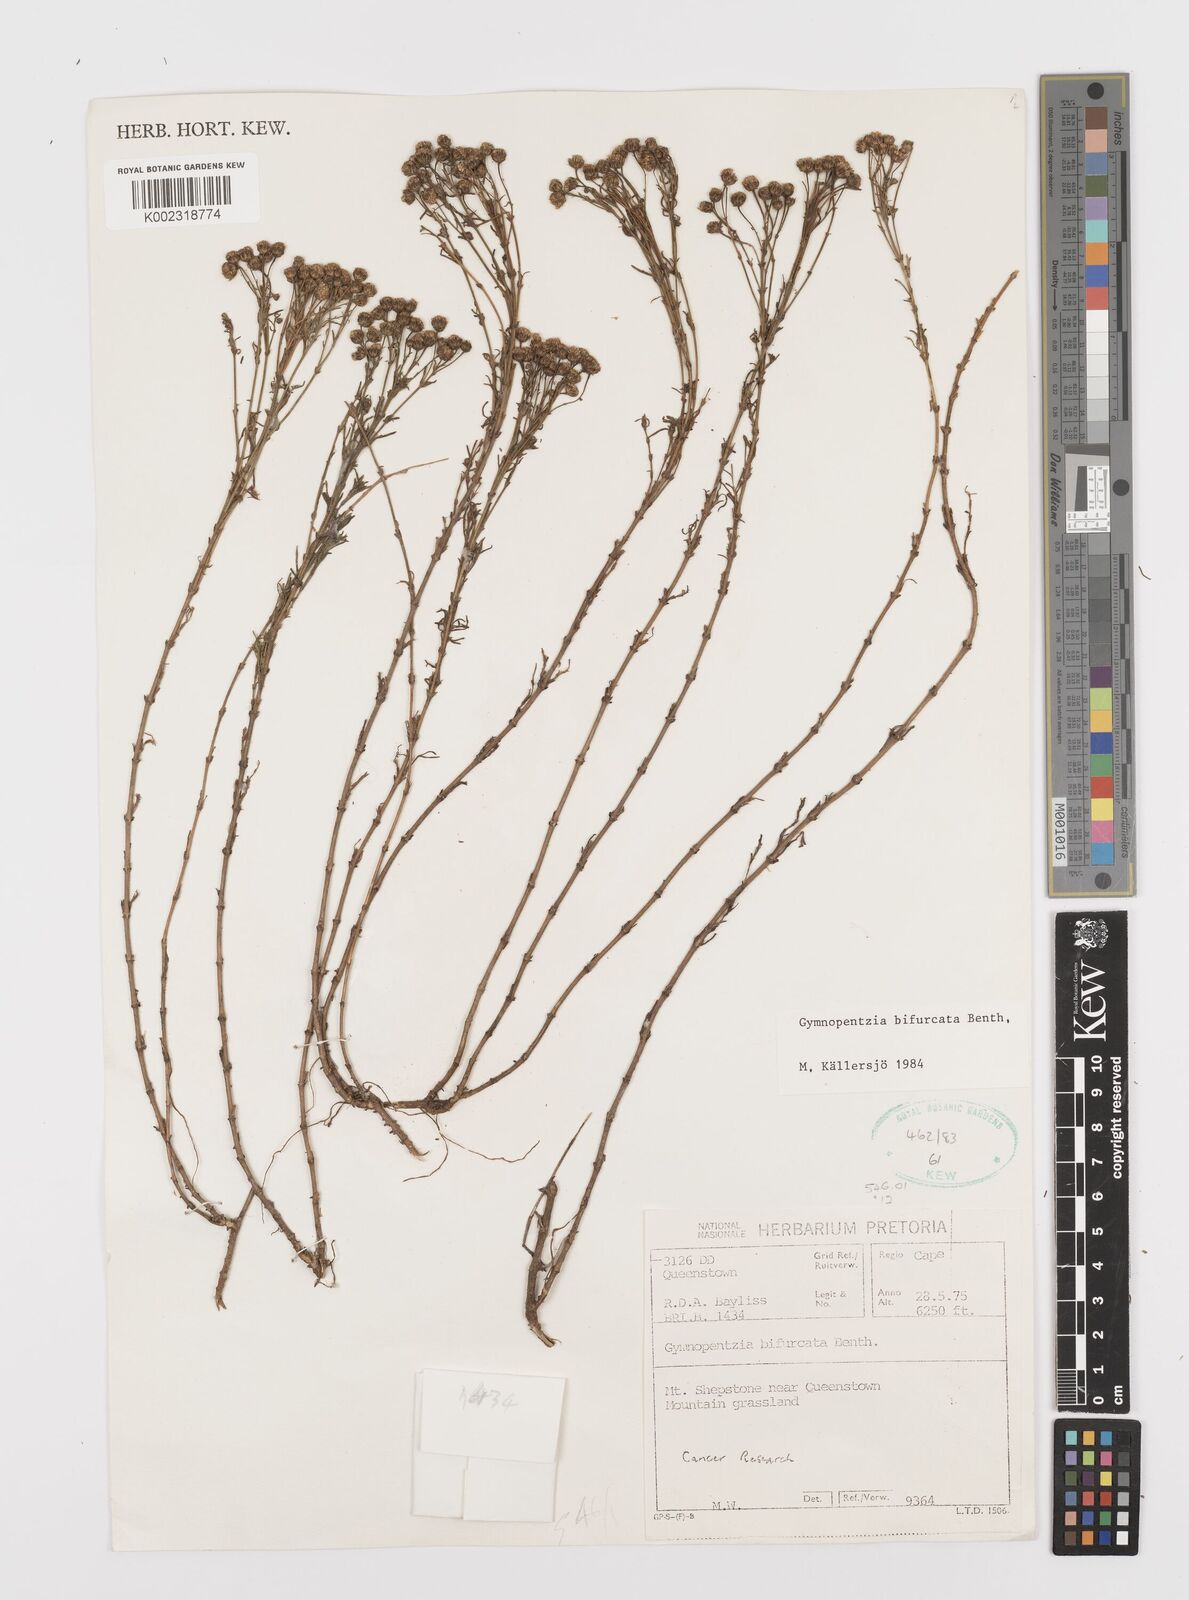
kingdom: Plantae
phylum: Tracheophyta
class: Magnoliopsida
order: Asterales
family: Asteraceae
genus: Gymnopentzia
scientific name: Gymnopentzia bifurcata
